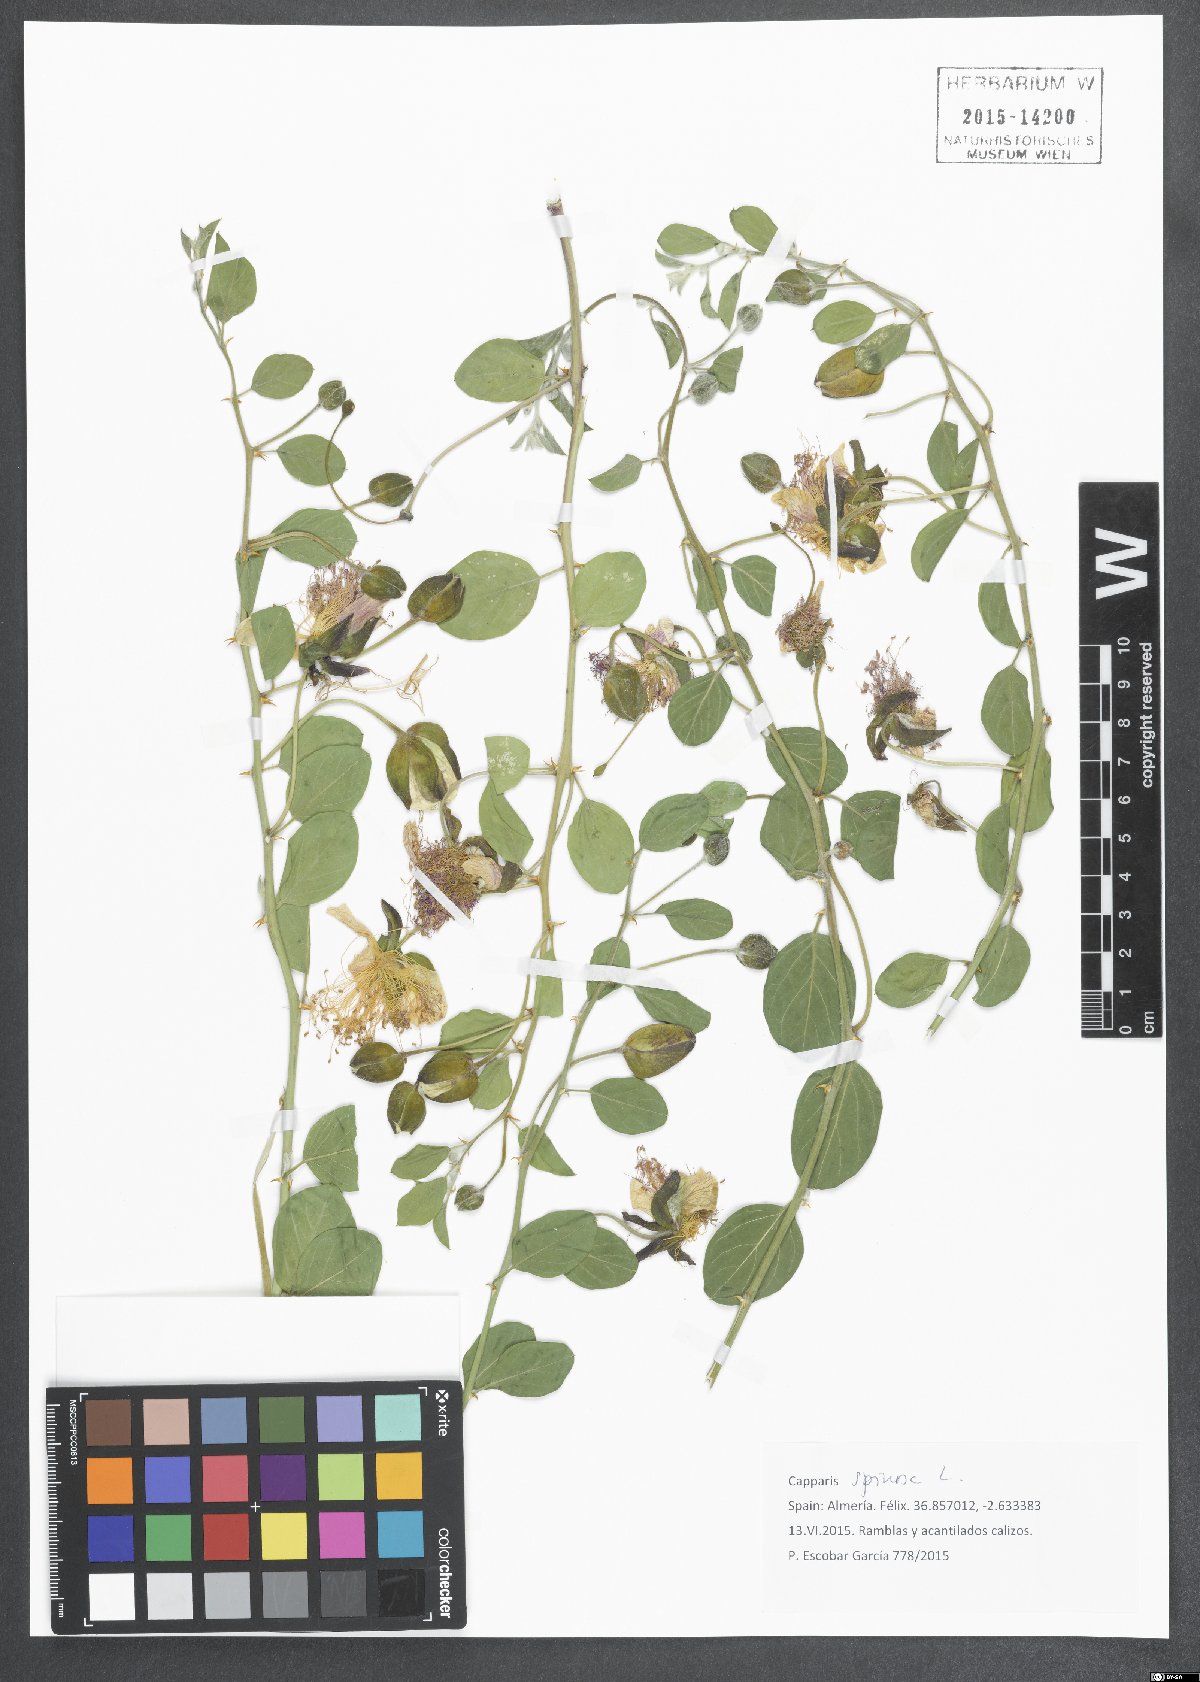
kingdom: Plantae
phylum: Tracheophyta
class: Magnoliopsida
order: Brassicales
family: Capparaceae
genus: Capparis
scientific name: Capparis spinosa
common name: Caper
